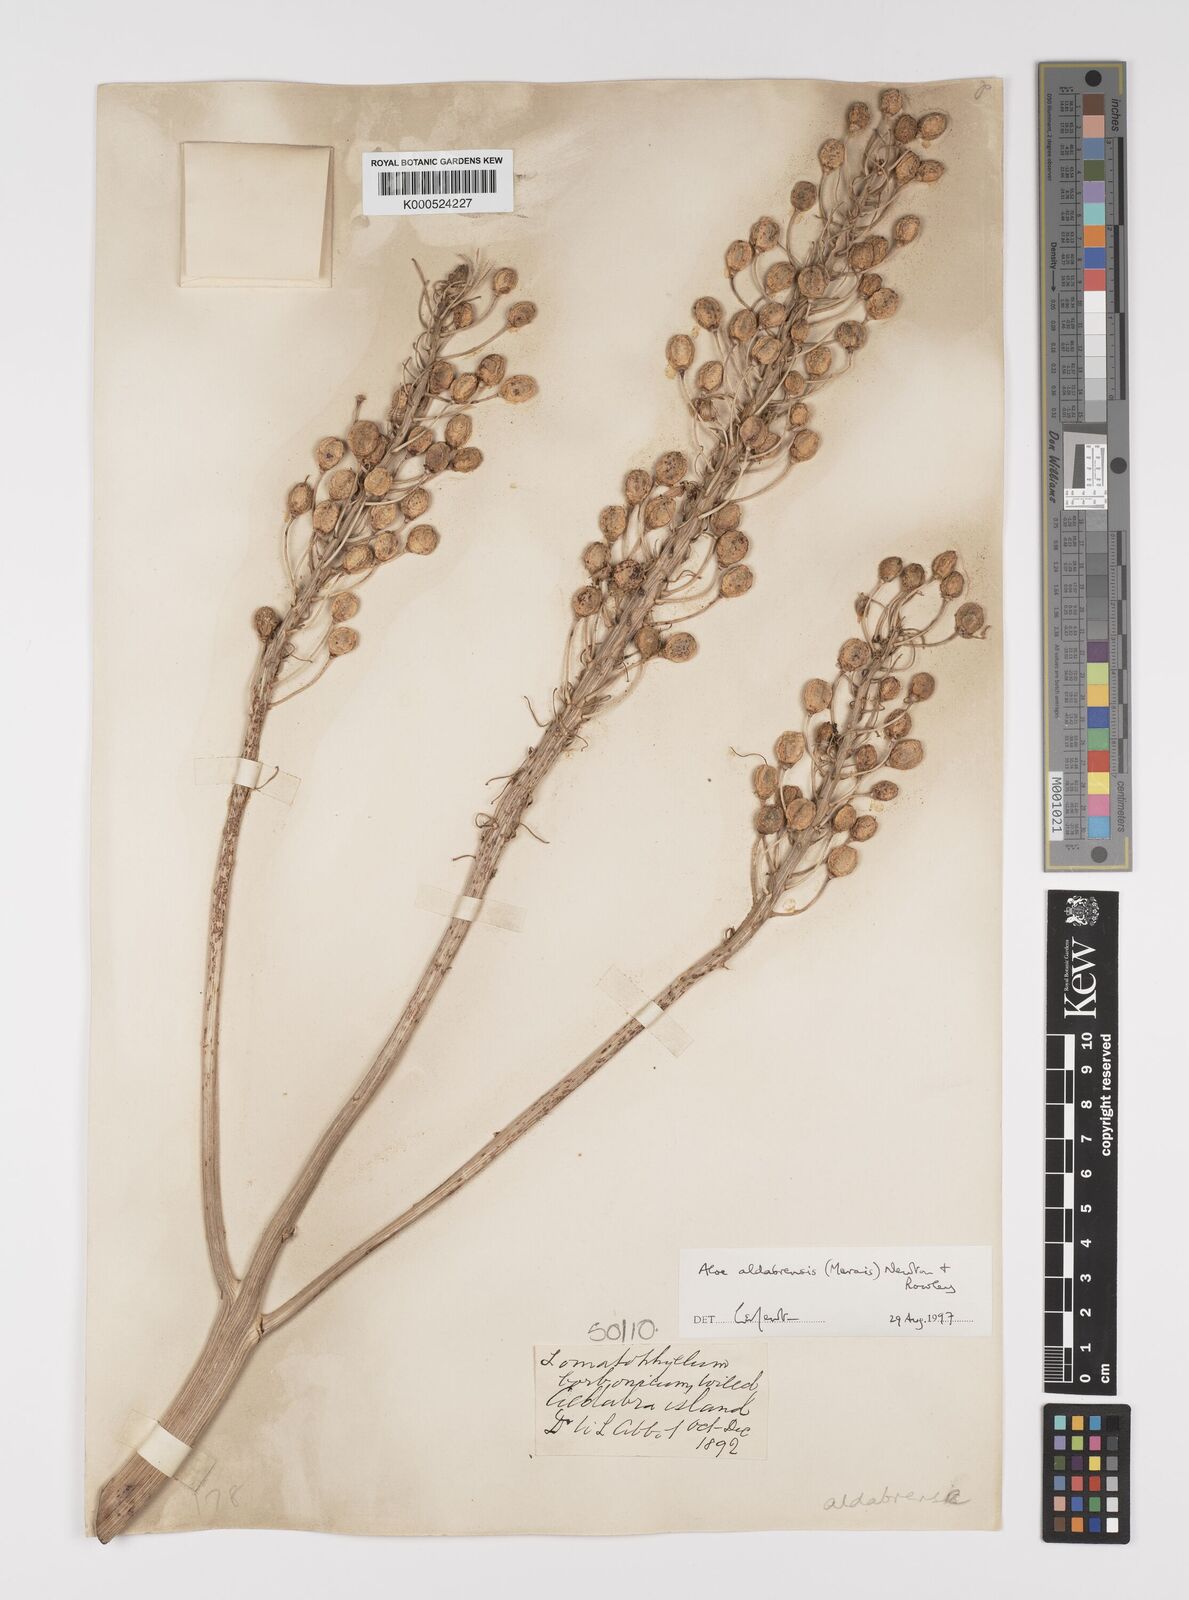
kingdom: Plantae
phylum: Tracheophyta
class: Liliopsida
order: Asparagales
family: Asphodelaceae
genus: Aloe
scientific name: Aloe aldabrensis
